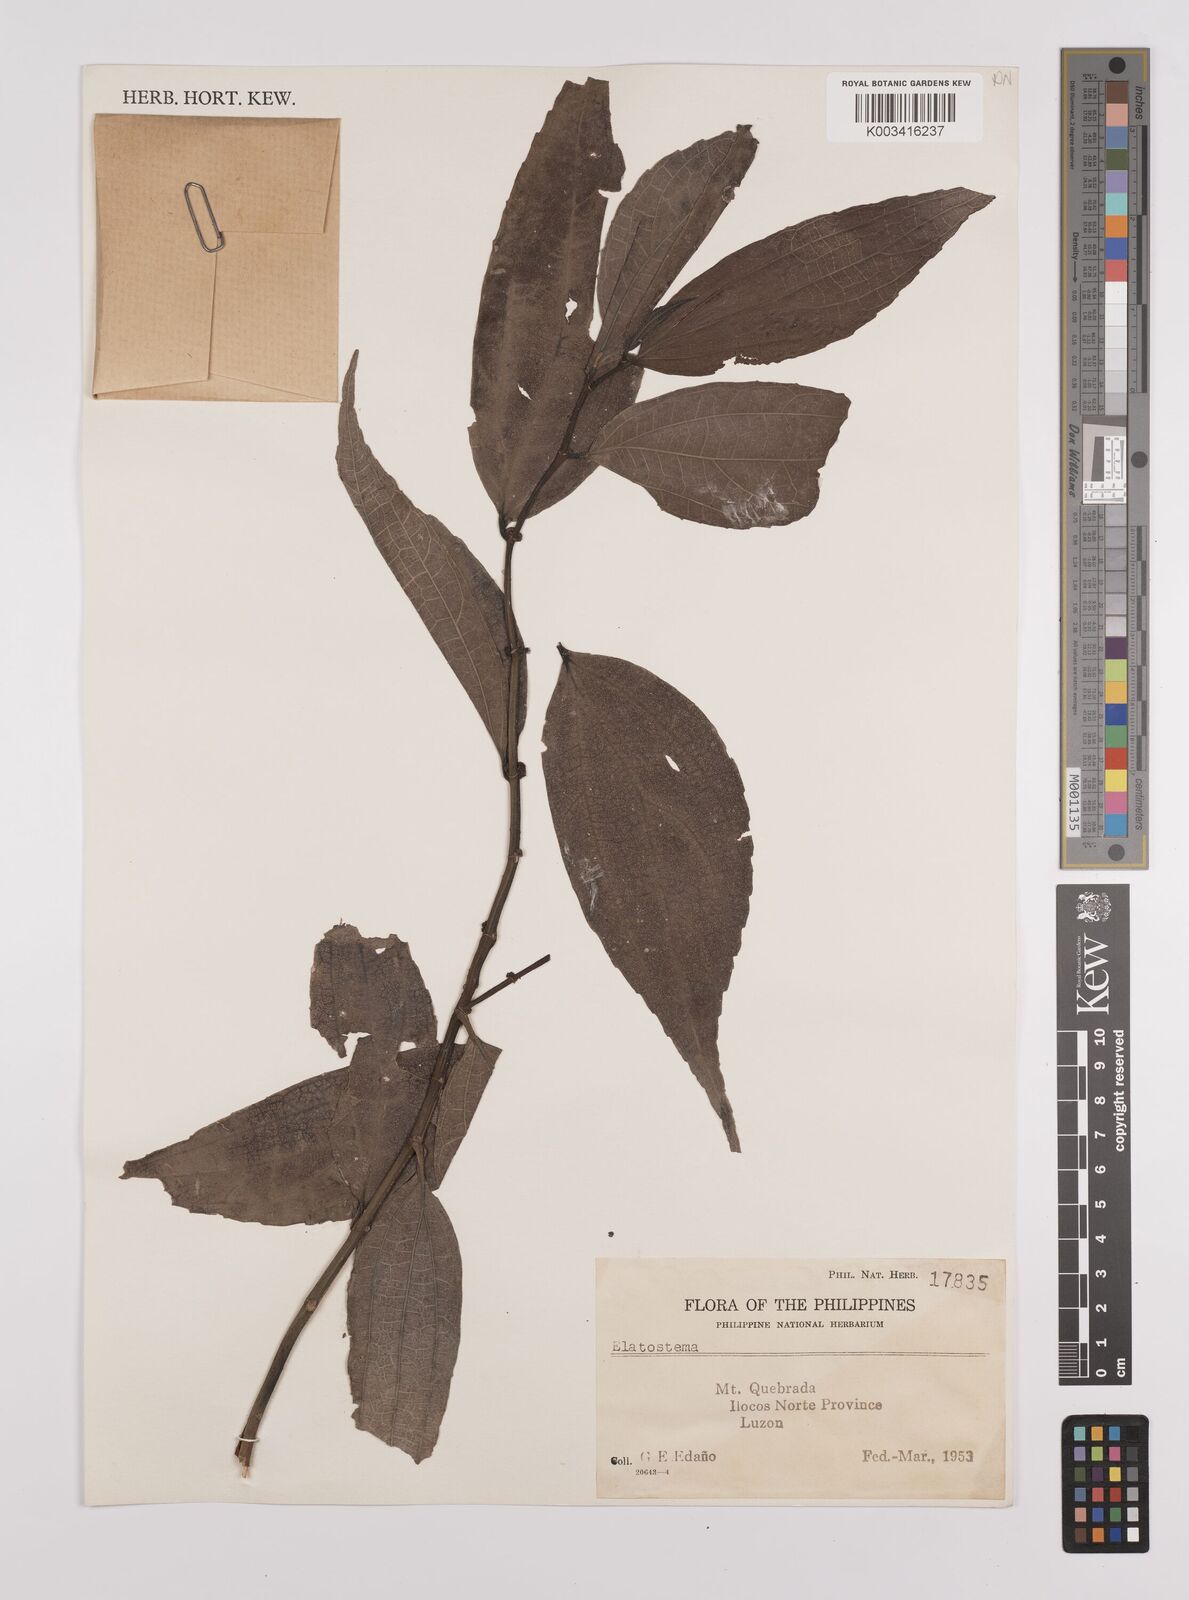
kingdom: Plantae
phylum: Tracheophyta
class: Magnoliopsida
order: Rosales
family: Urticaceae
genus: Elatostema
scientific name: Elatostema
